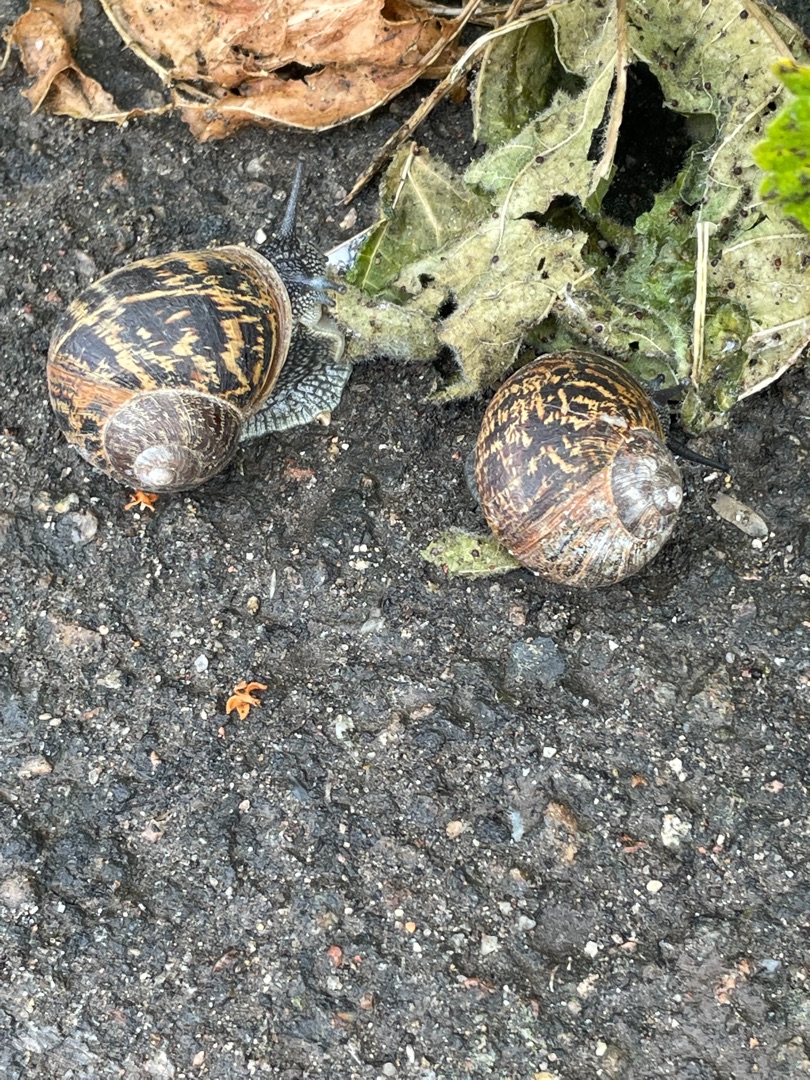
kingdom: Animalia
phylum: Mollusca
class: Gastropoda
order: Stylommatophora
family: Helicidae
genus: Cornu
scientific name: Cornu aspersum
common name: Plettet voldsnegl
